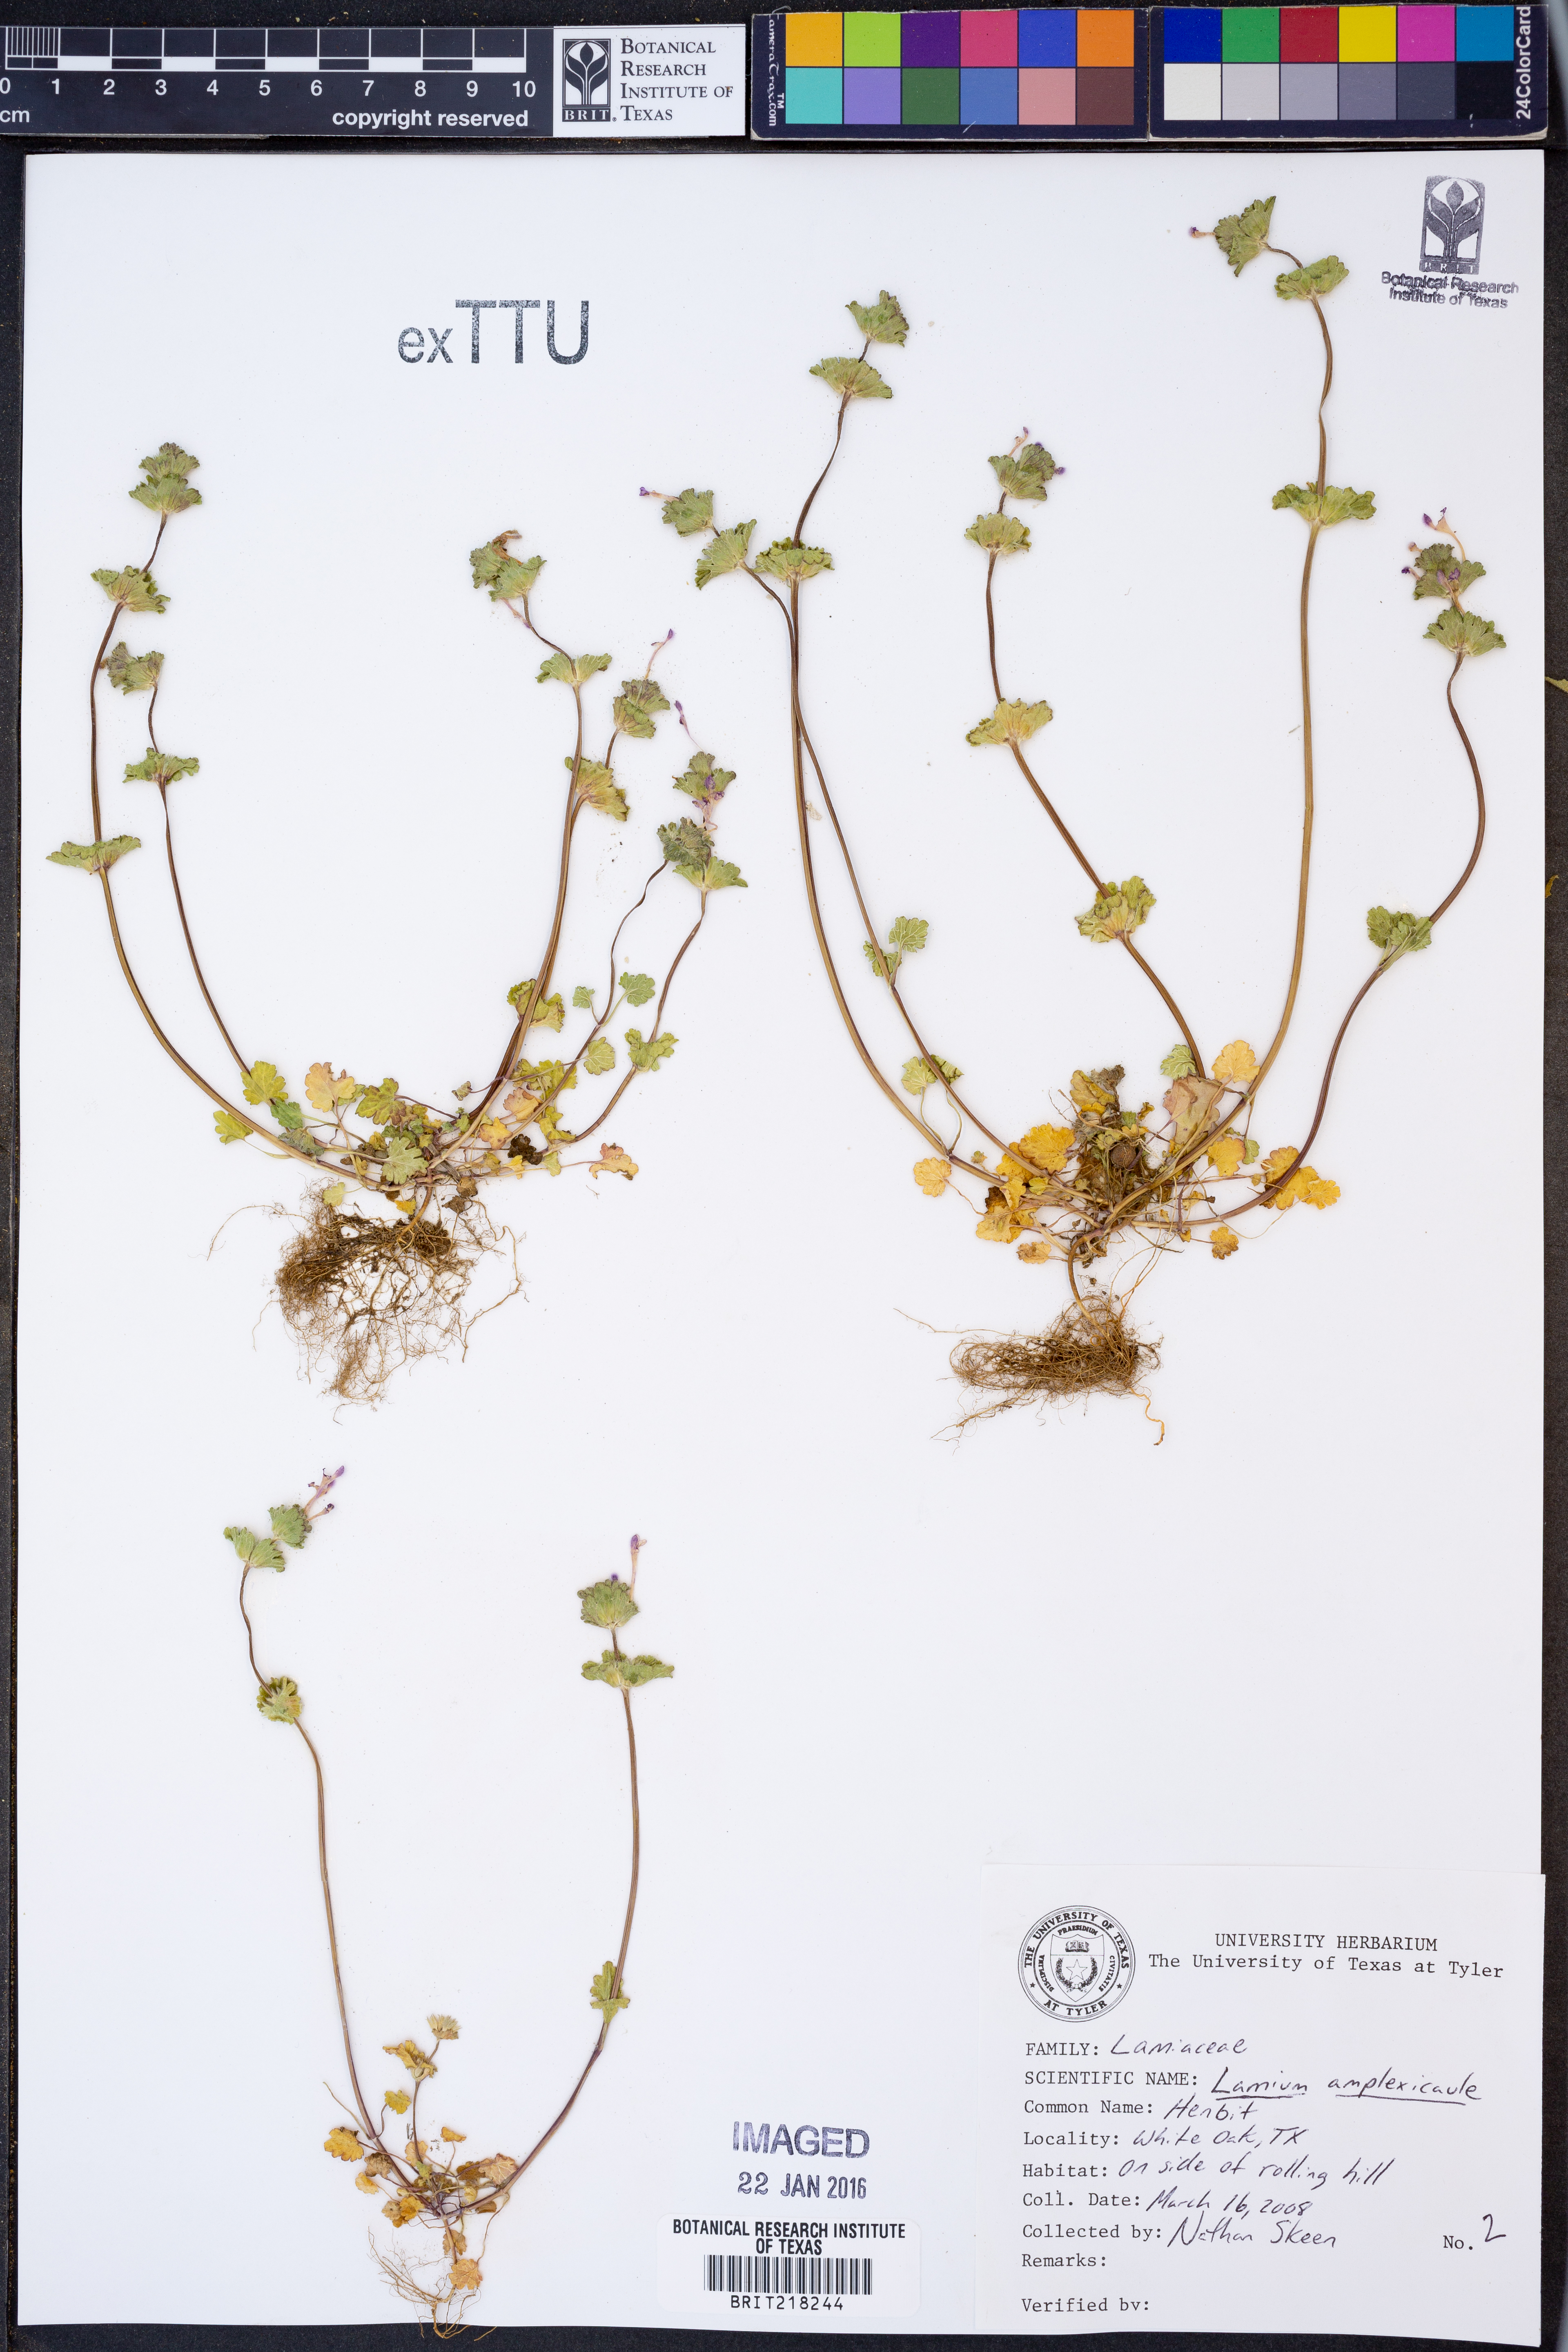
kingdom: Plantae
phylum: Tracheophyta
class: Magnoliopsida
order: Lamiales
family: Lamiaceae
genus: Lamium
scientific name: Lamium amplexicaule
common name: Henbit dead-nettle
